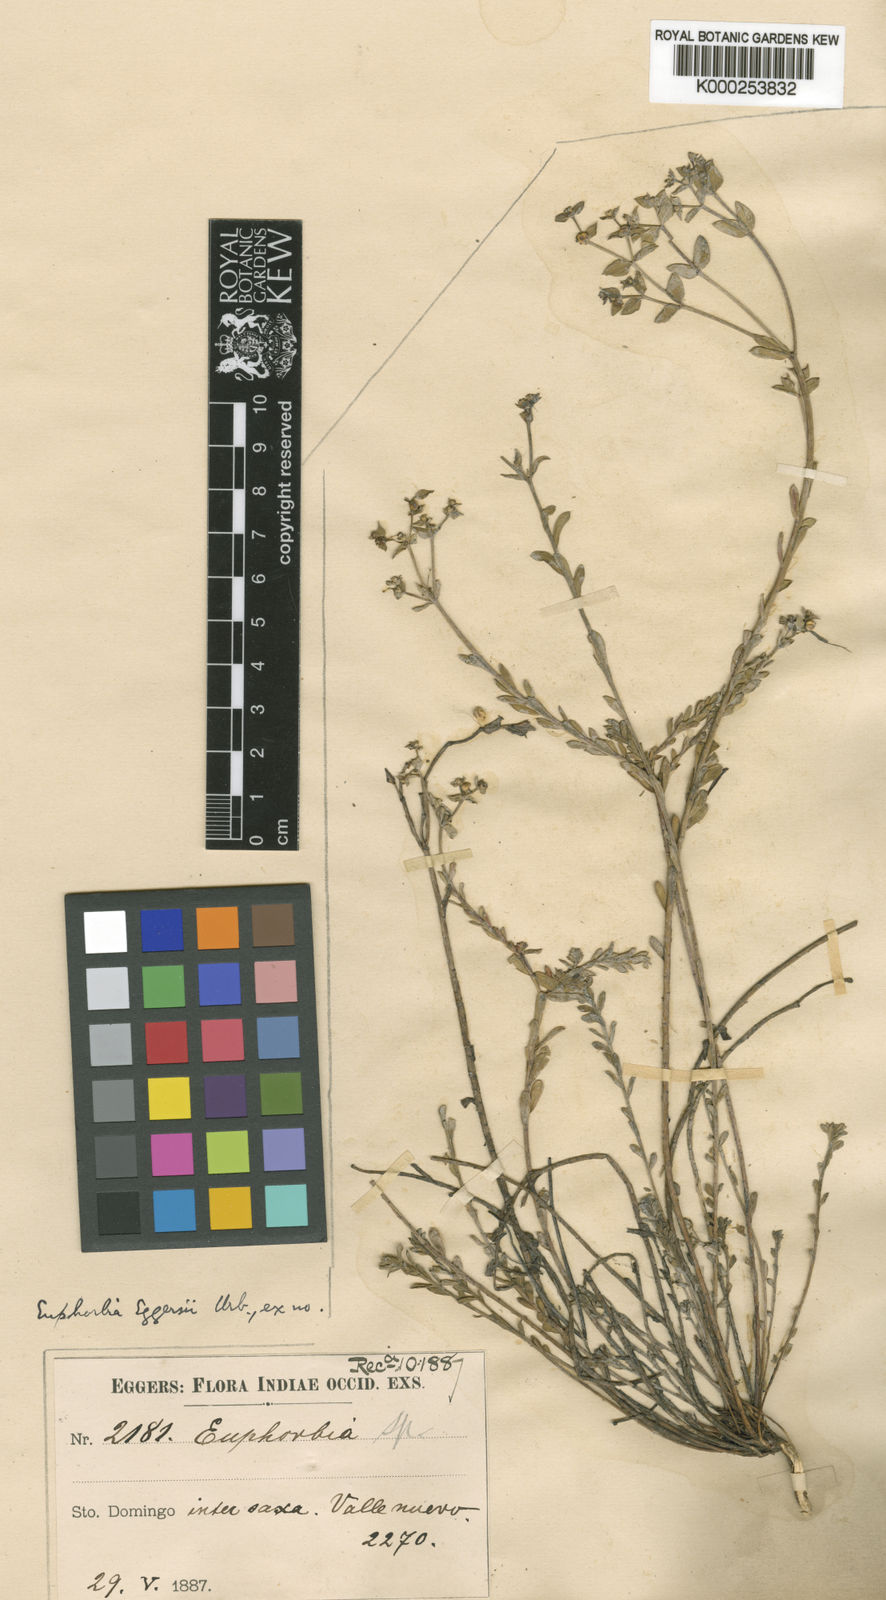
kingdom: Plantae
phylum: Tracheophyta
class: Magnoliopsida
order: Malpighiales
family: Euphorbiaceae
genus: Euphorbia
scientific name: Euphorbia eggersii
